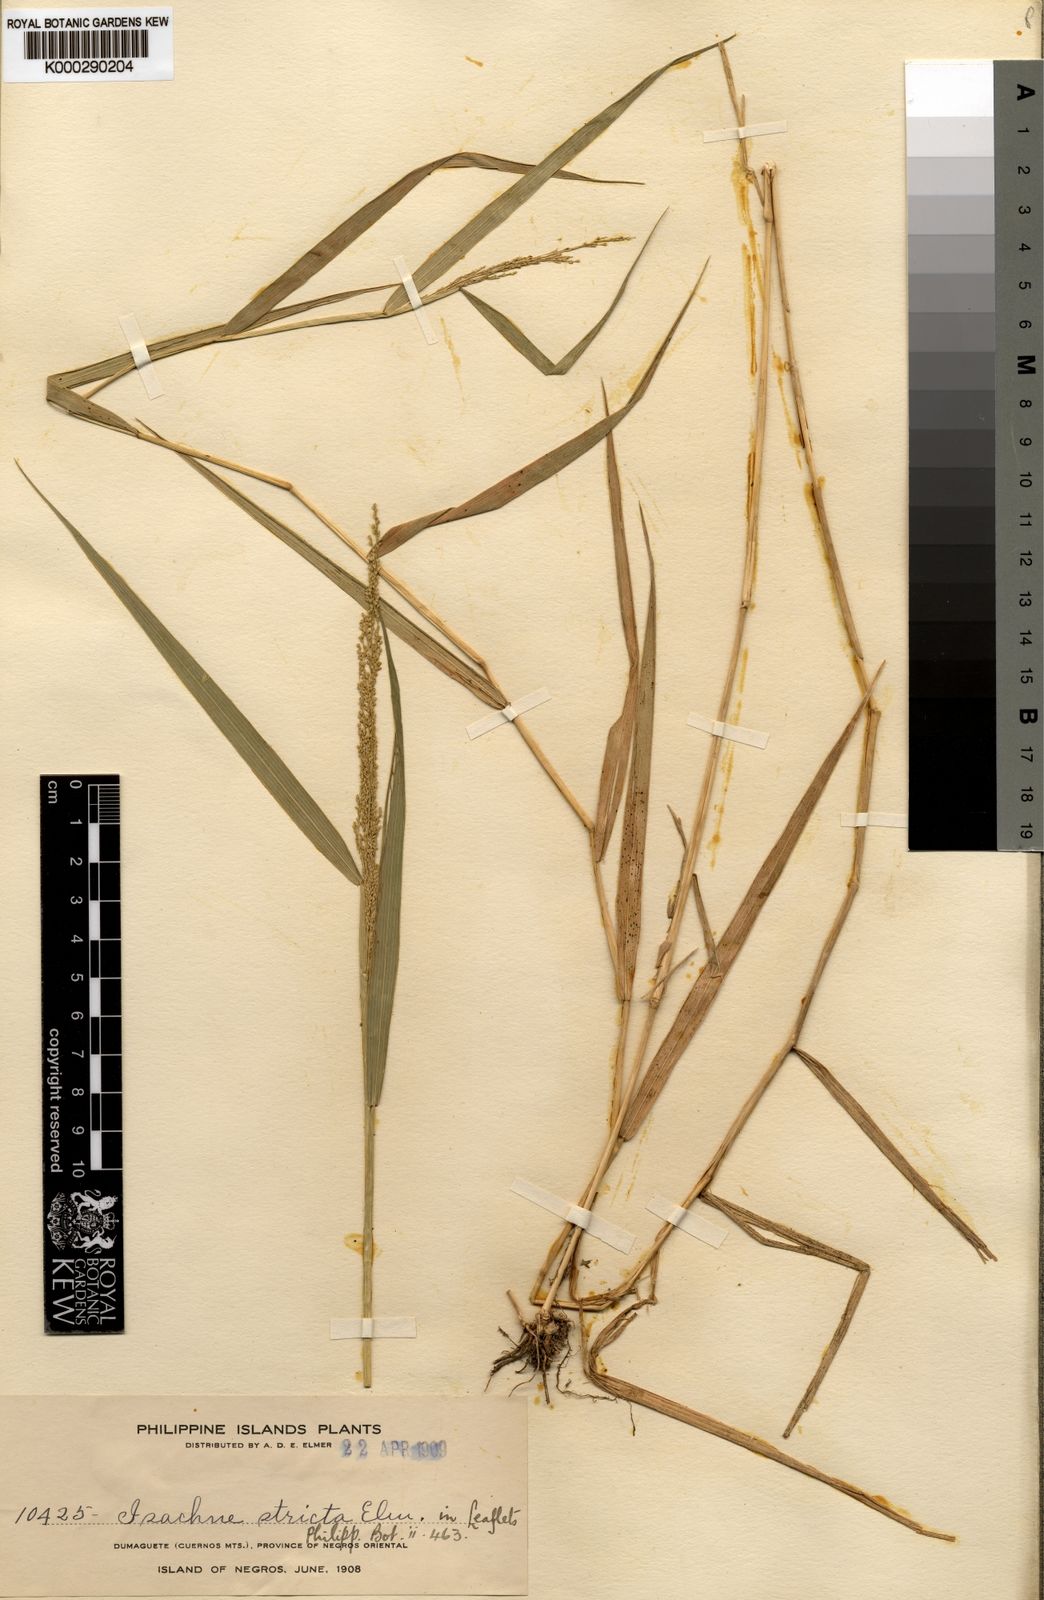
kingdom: Plantae
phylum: Tracheophyta
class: Liliopsida
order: Poales
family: Poaceae
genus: Isachne
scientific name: Isachne albens
